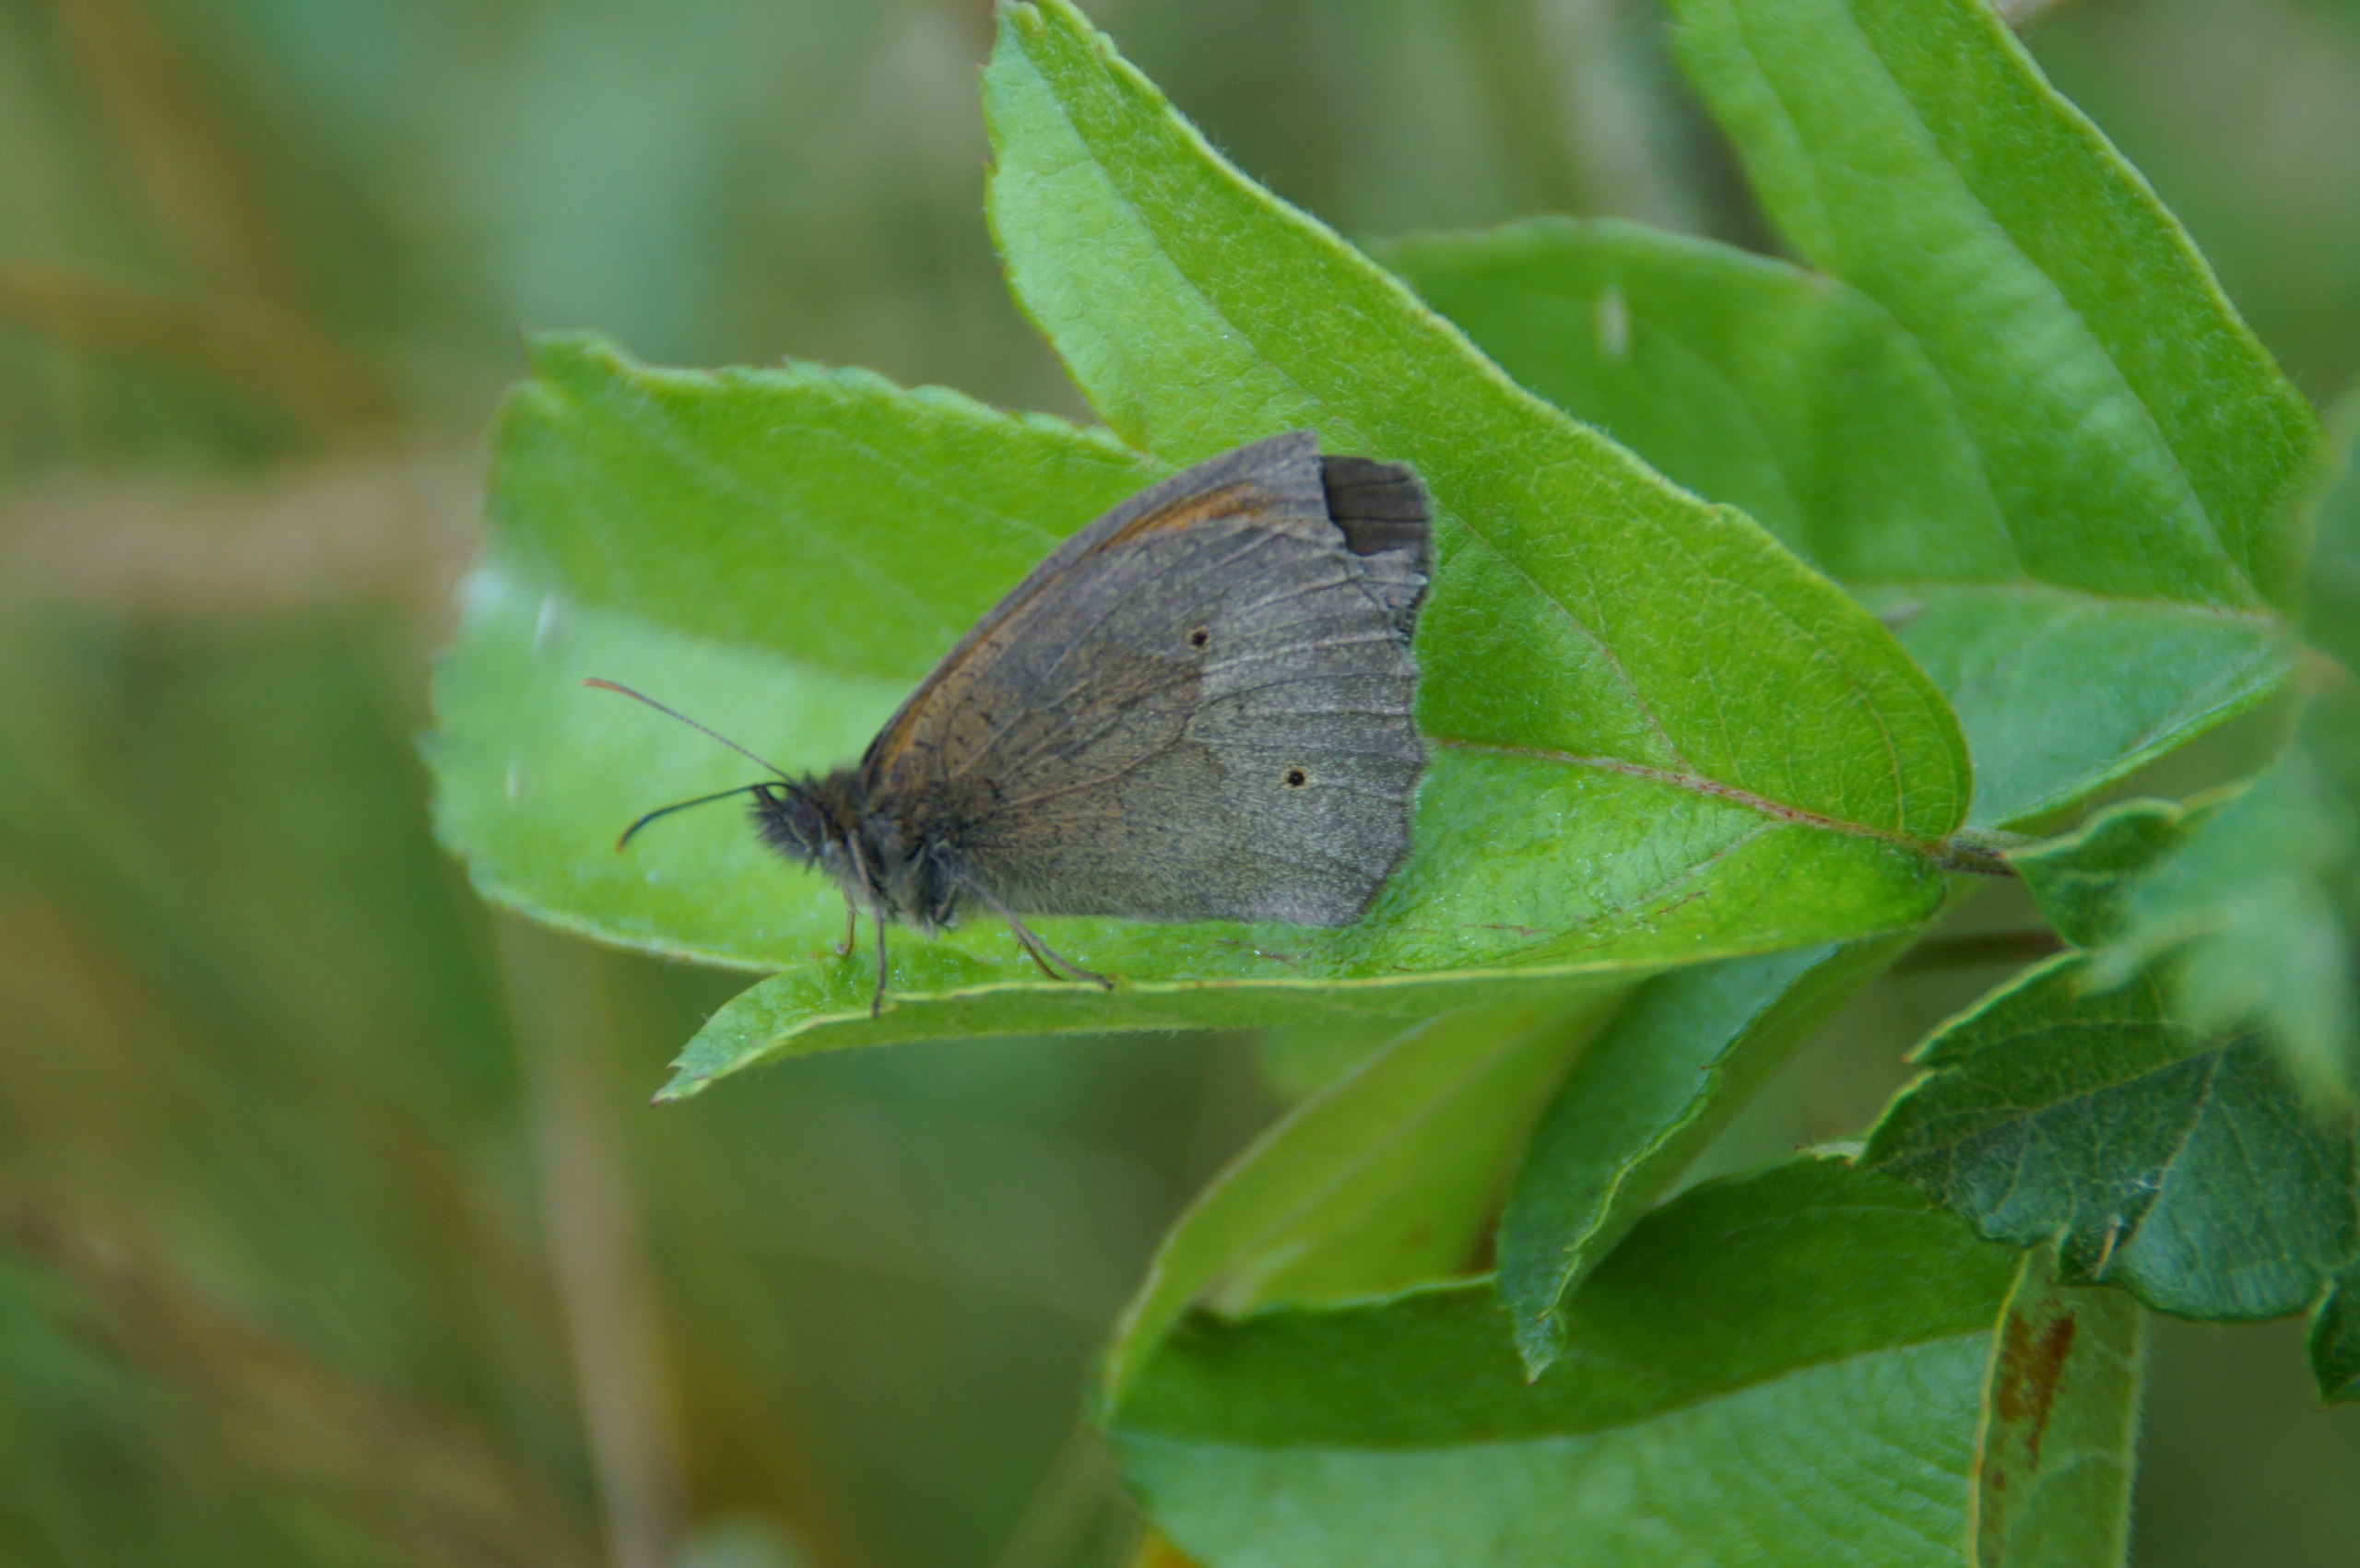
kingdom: Animalia
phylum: Arthropoda
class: Insecta
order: Lepidoptera
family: Nymphalidae
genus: Maniola
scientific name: Maniola jurtina
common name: Græsrandøje
